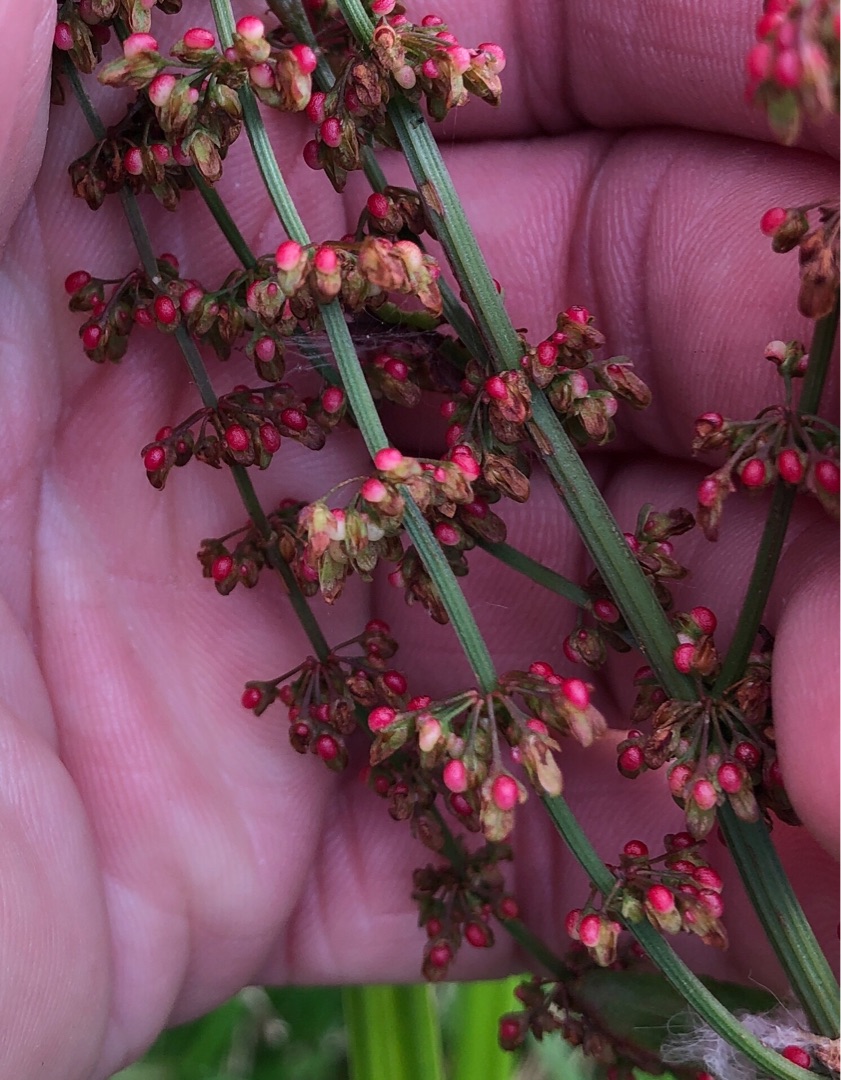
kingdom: Plantae
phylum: Tracheophyta
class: Magnoliopsida
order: Caryophyllales
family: Polygonaceae
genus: Rumex
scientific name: Rumex sanguineus
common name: Skov-skræppe
